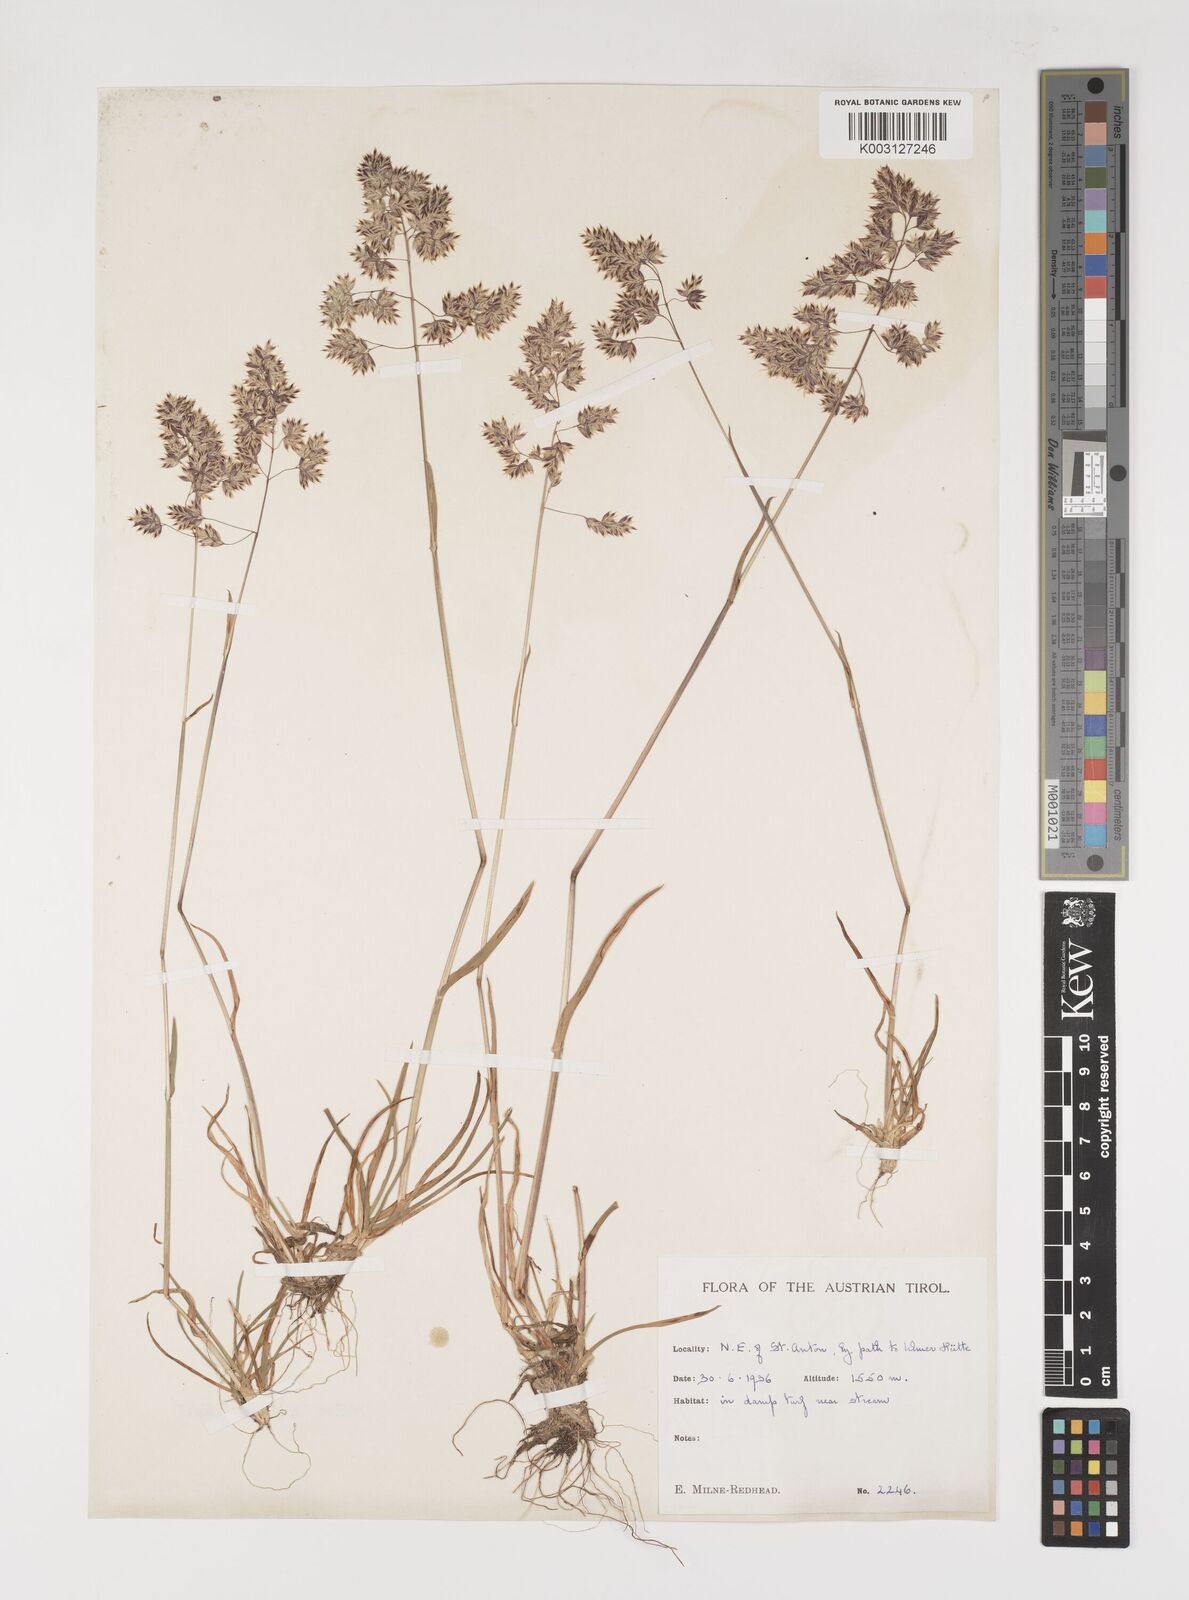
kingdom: Plantae
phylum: Tracheophyta
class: Liliopsida
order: Poales
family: Poaceae
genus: Poa
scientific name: Poa alpina
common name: Alpine bluegrass
